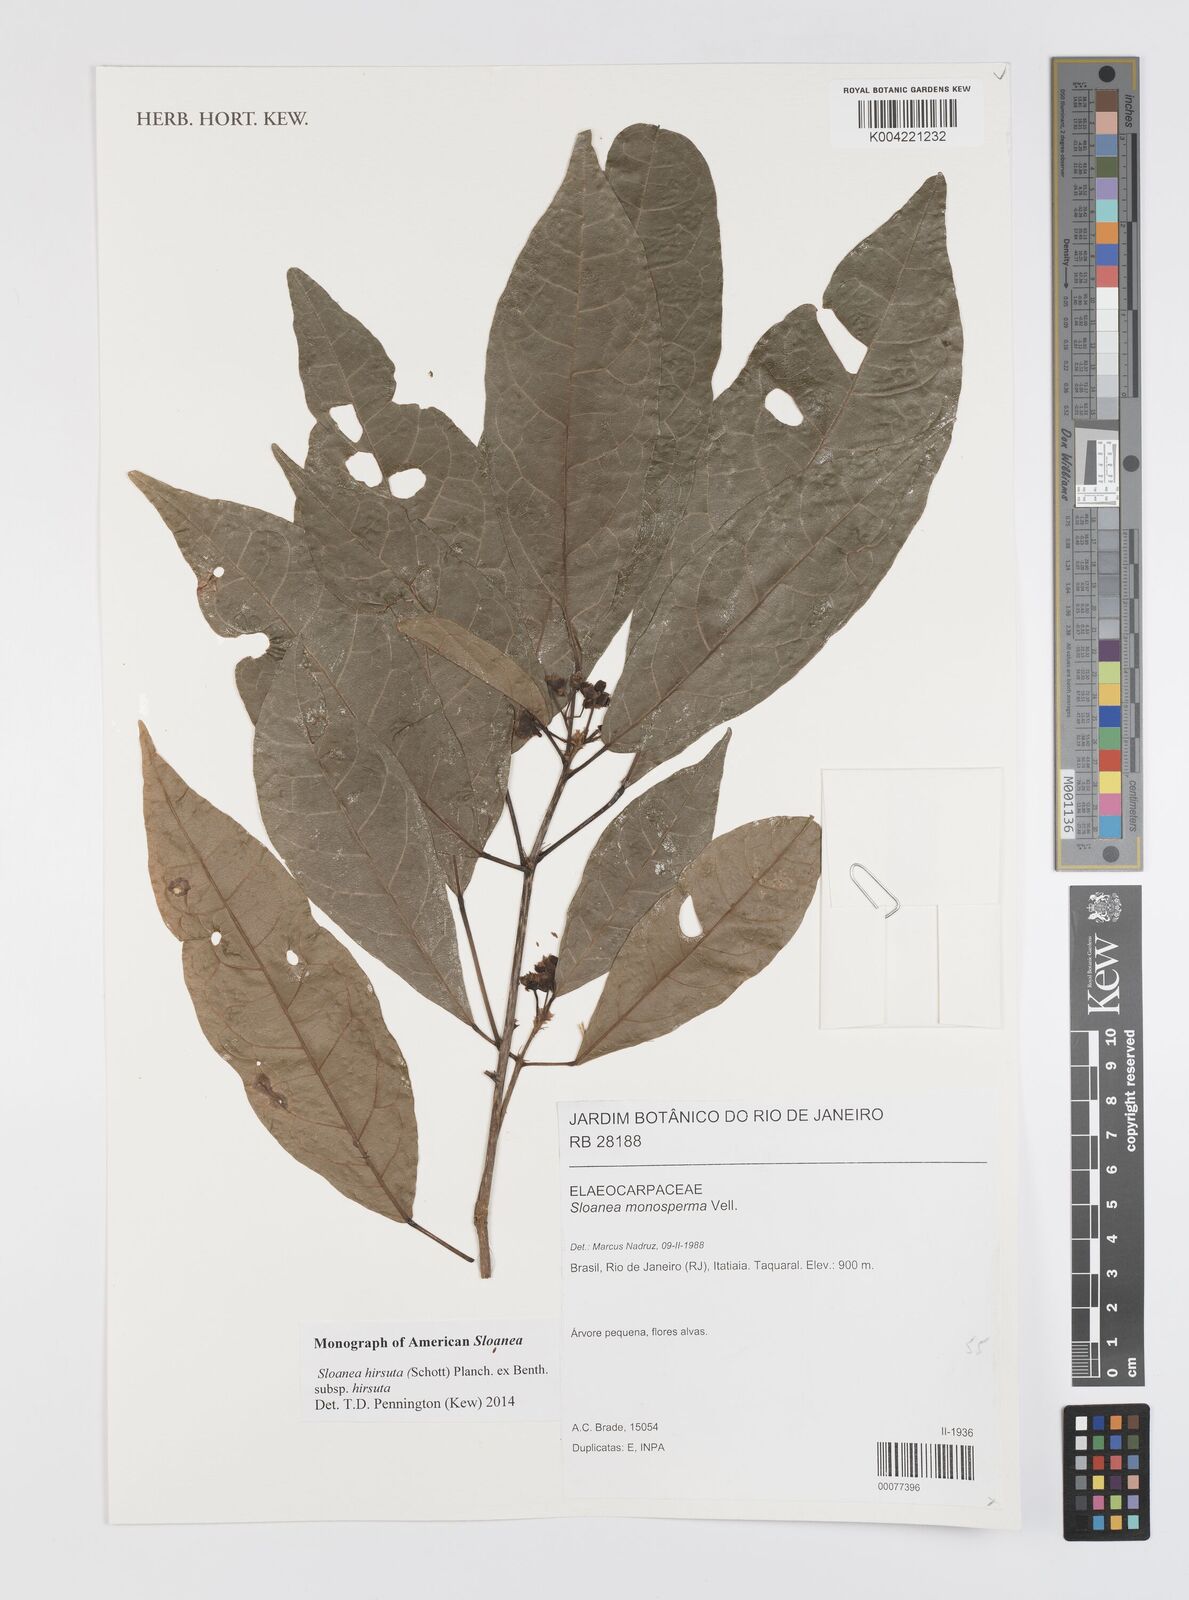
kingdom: Plantae
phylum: Tracheophyta
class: Magnoliopsida
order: Oxalidales
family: Elaeocarpaceae
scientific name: Elaeocarpaceae
